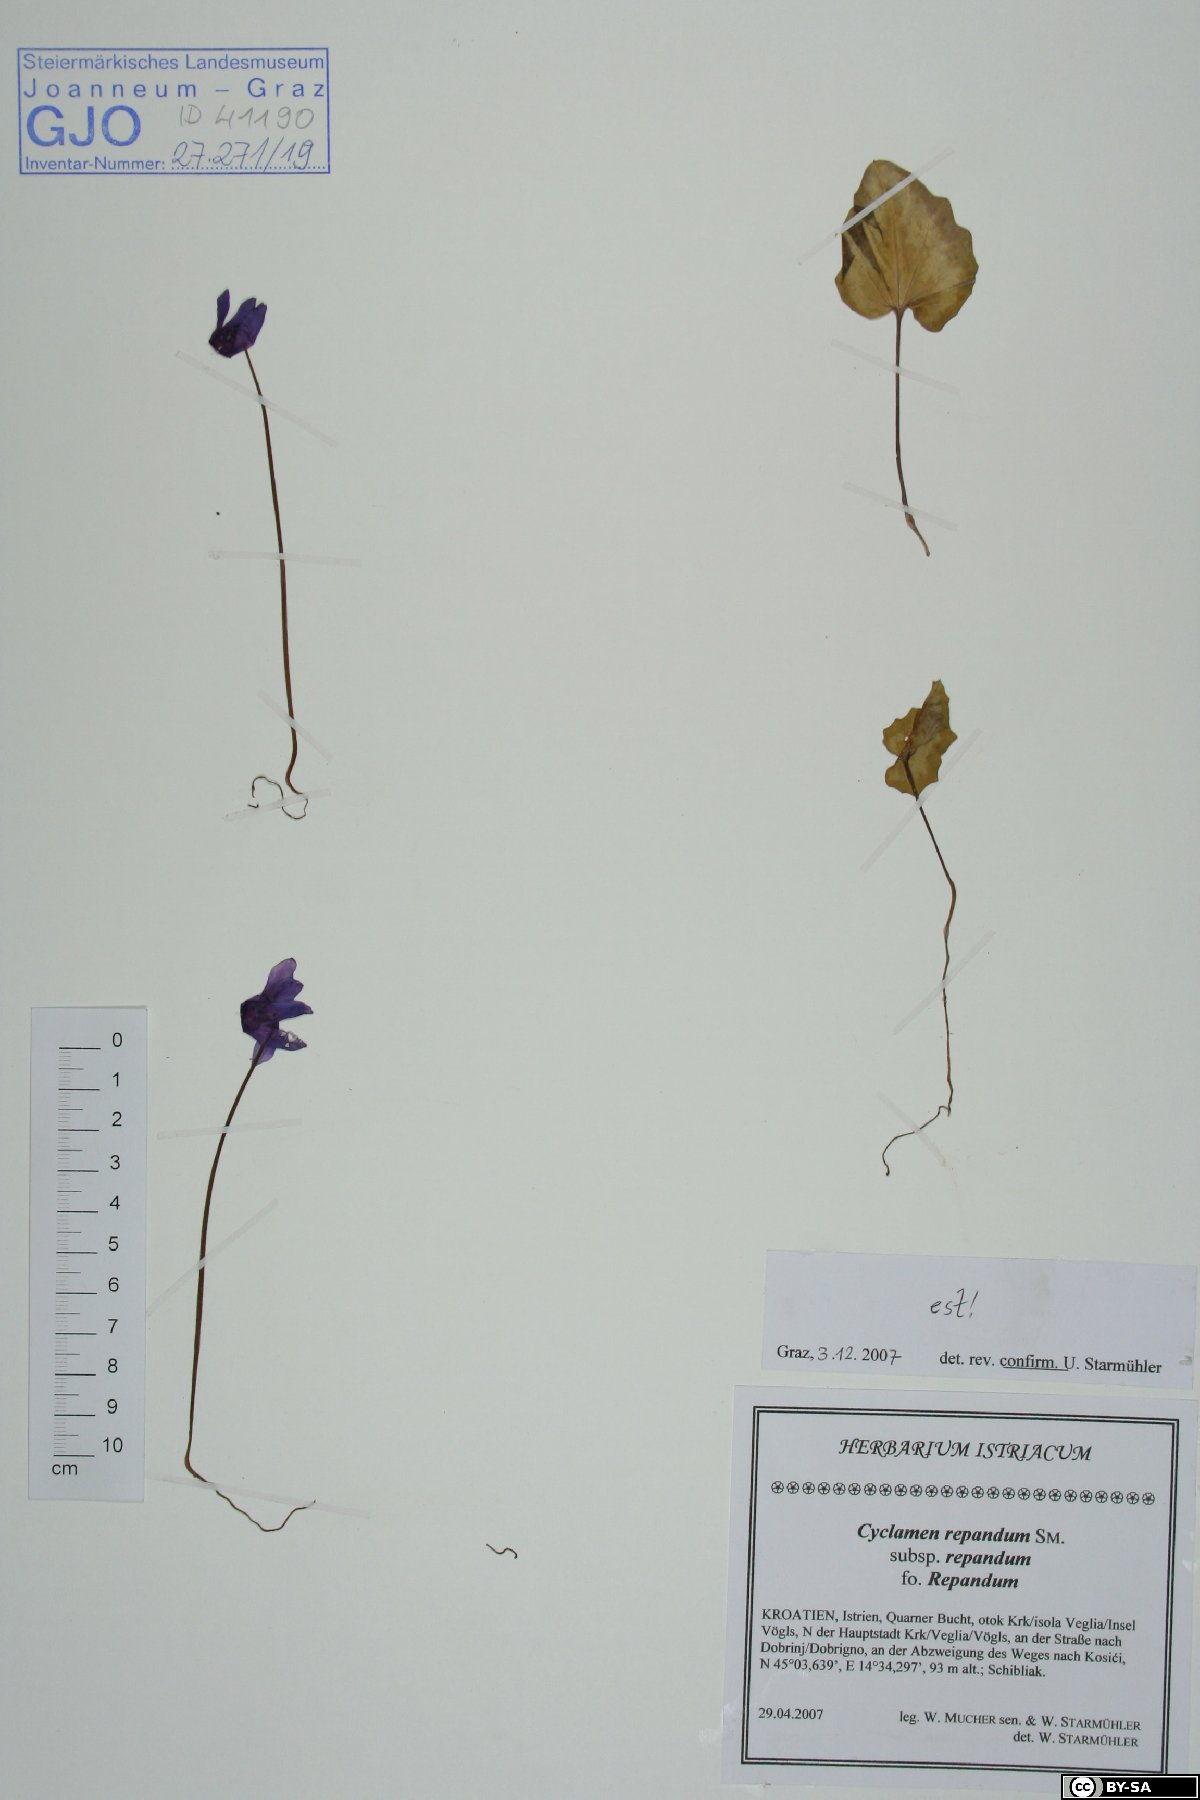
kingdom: Plantae
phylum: Tracheophyta
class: Magnoliopsida
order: Ericales
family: Primulaceae
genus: Cyclamen
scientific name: Cyclamen repandum
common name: Spring sowbread
